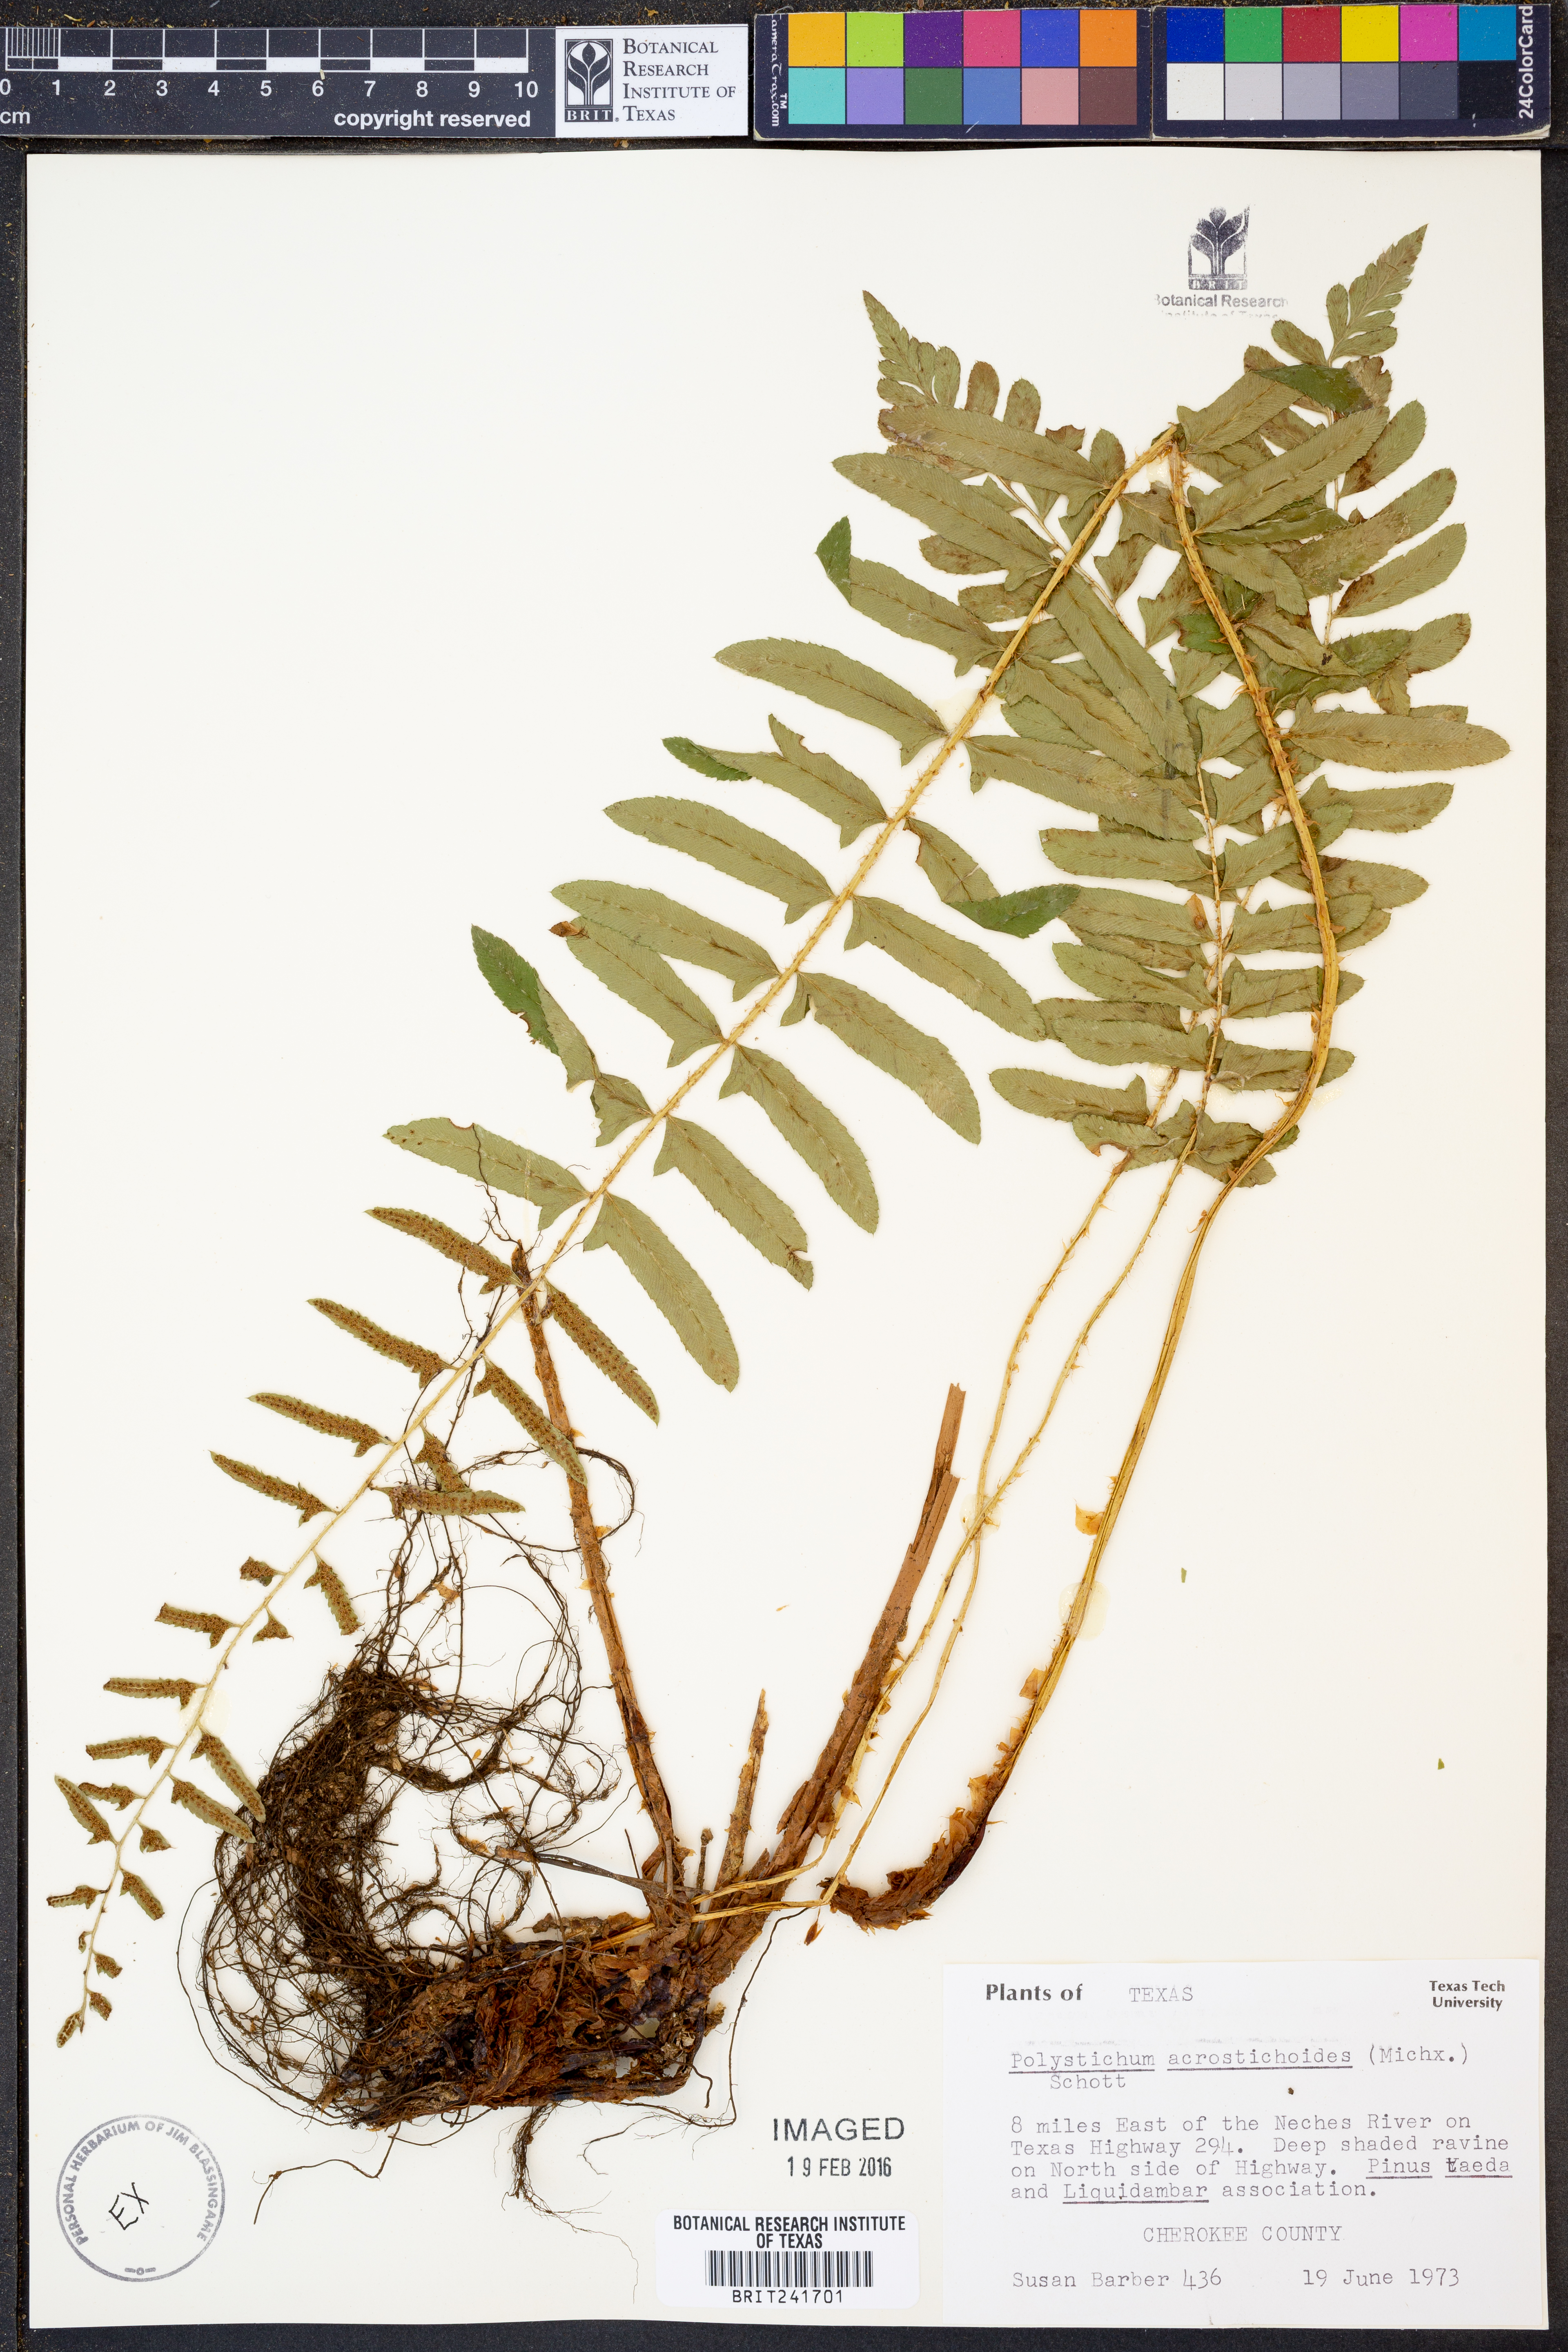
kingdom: Plantae
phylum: Tracheophyta
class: Polypodiopsida
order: Polypodiales
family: Dryopteridaceae
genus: Polystichum
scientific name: Polystichum acrostichoides
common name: Christmas fern
